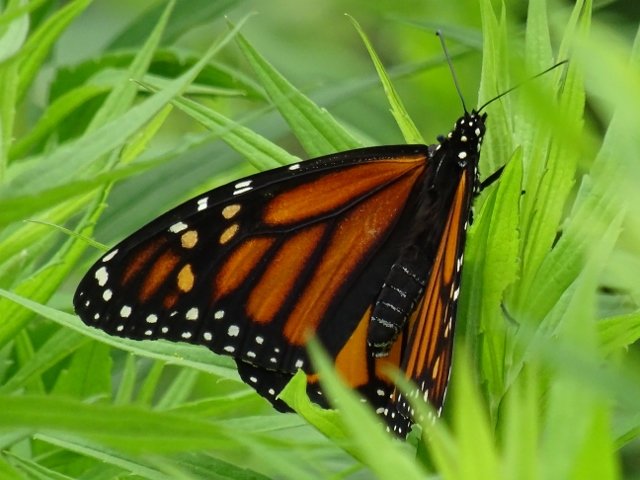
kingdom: Animalia
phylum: Arthropoda
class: Insecta
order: Lepidoptera
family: Nymphalidae
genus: Danaus
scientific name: Danaus plexippus
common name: Monarch
